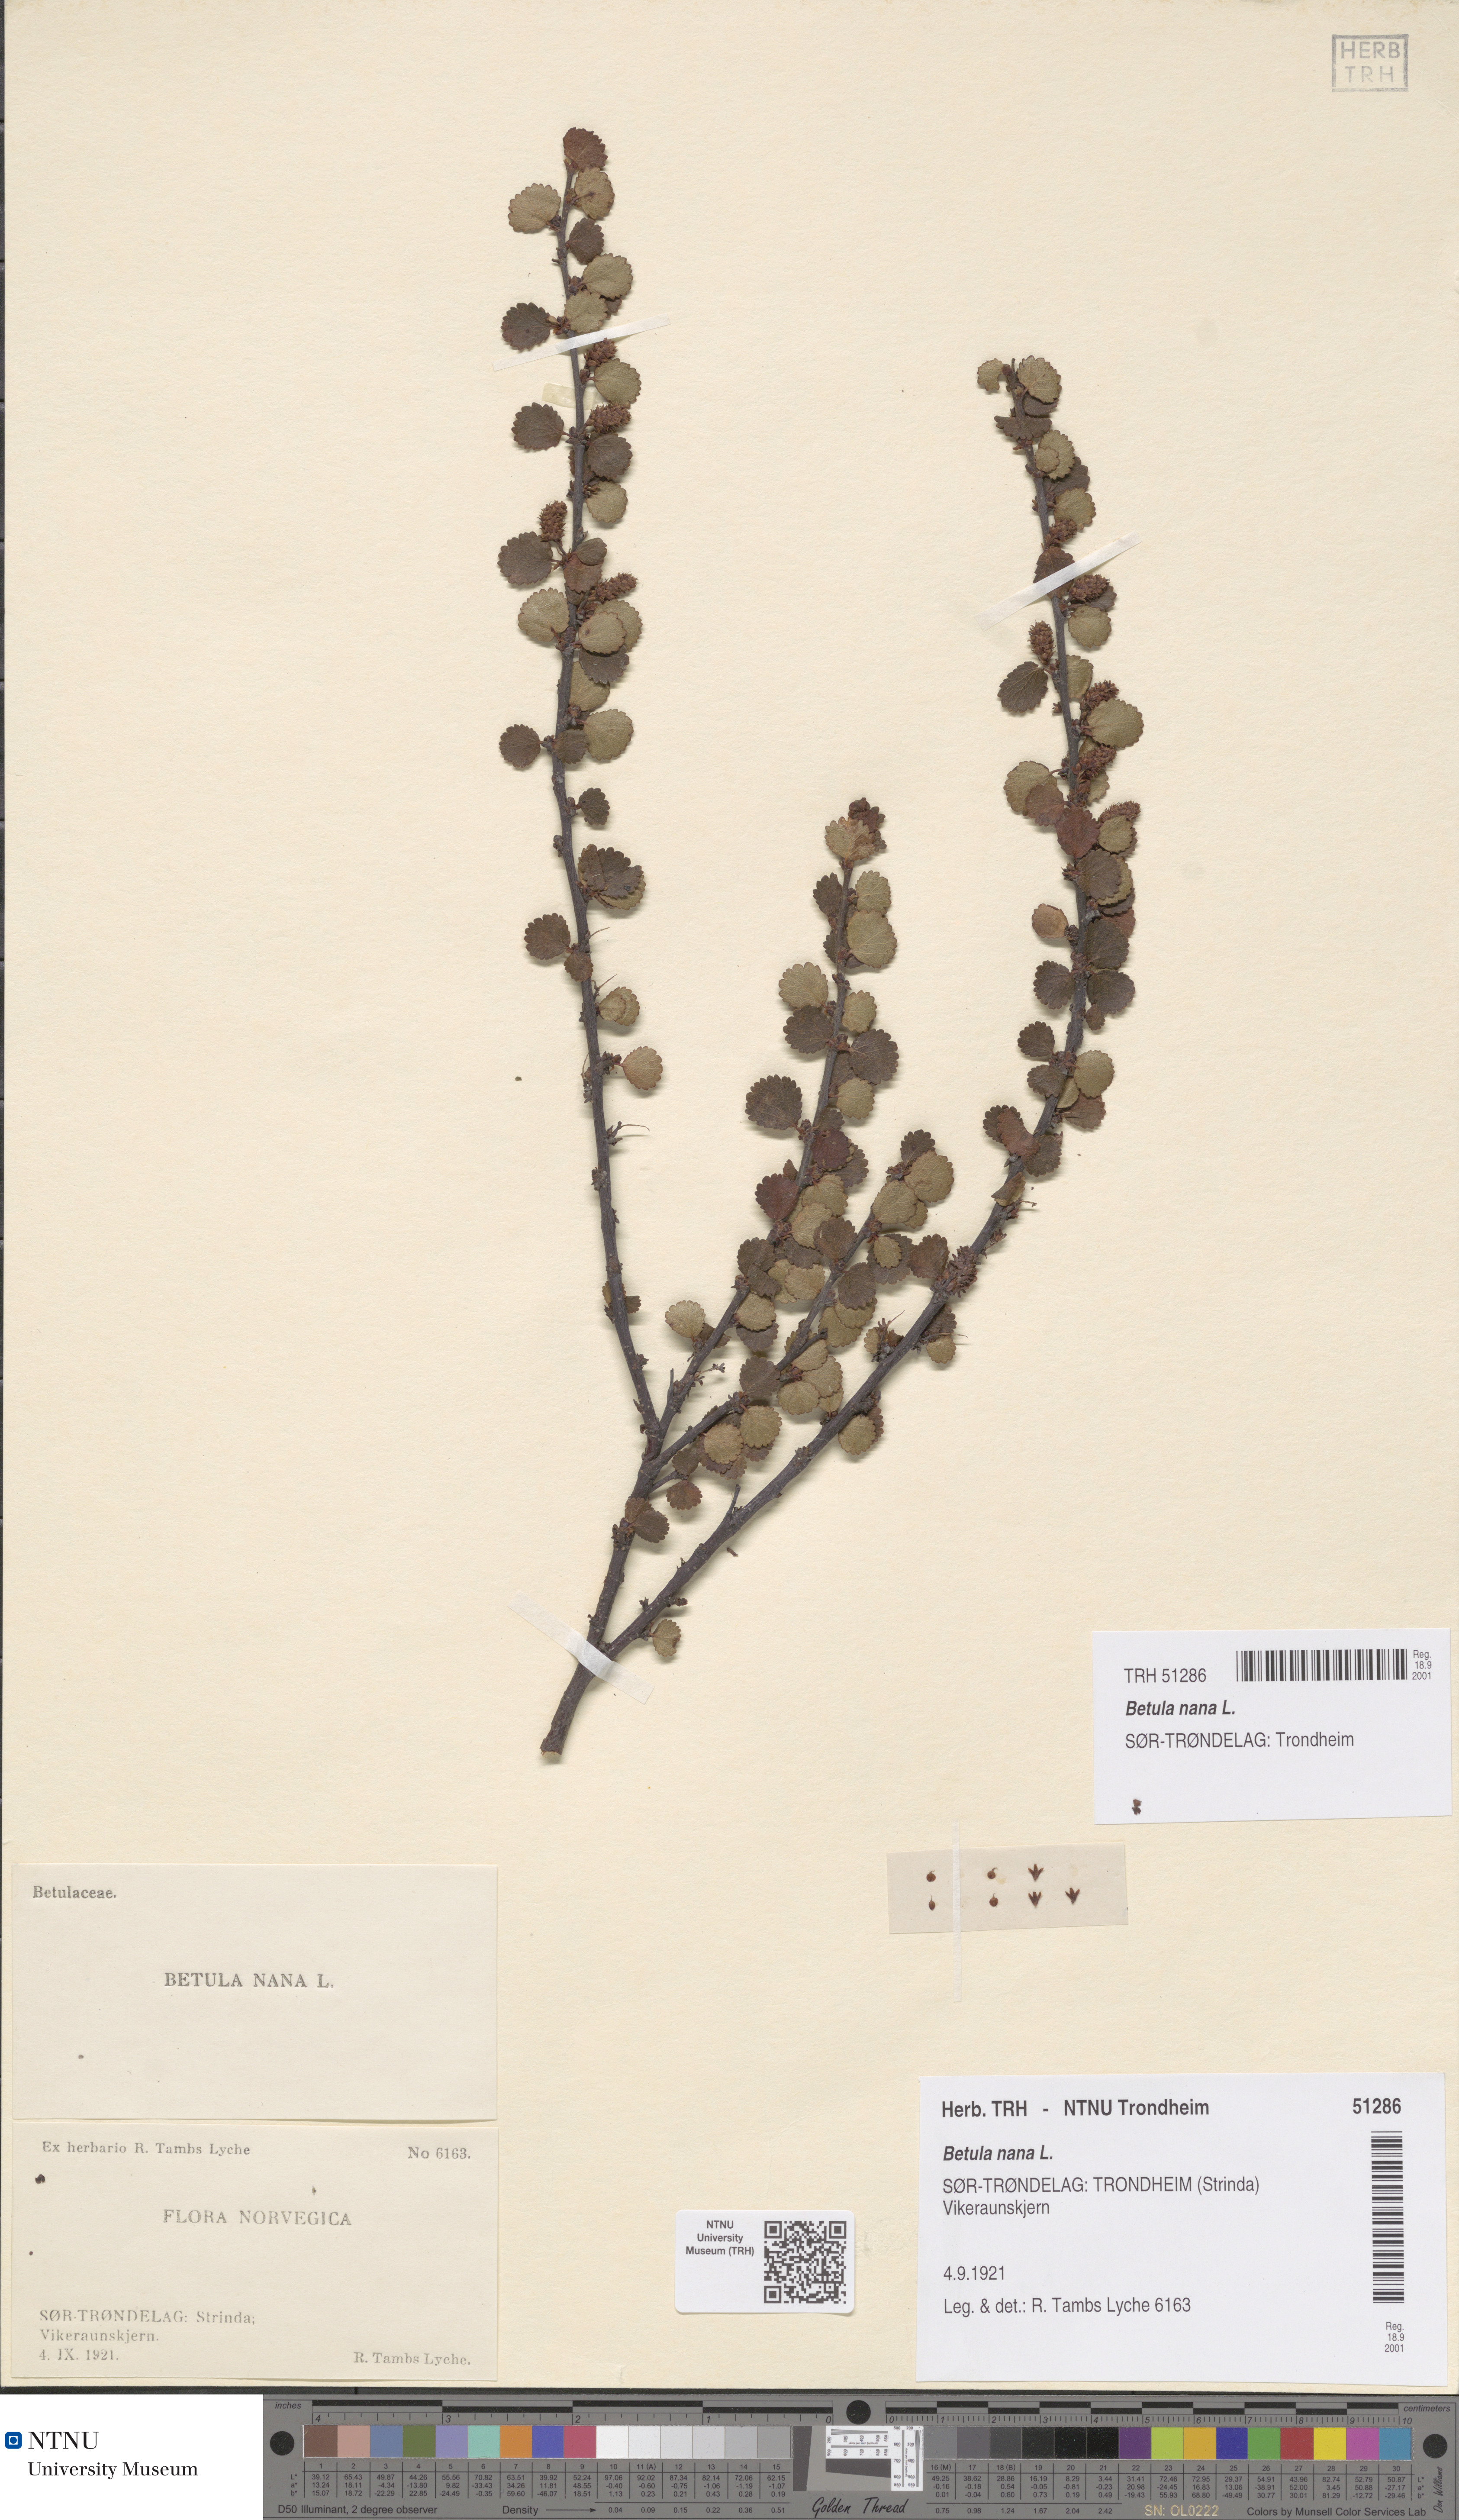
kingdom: Plantae
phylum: Tracheophyta
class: Magnoliopsida
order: Fagales
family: Betulaceae
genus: Betula
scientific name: Betula nana
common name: Arctic dwarf birch
